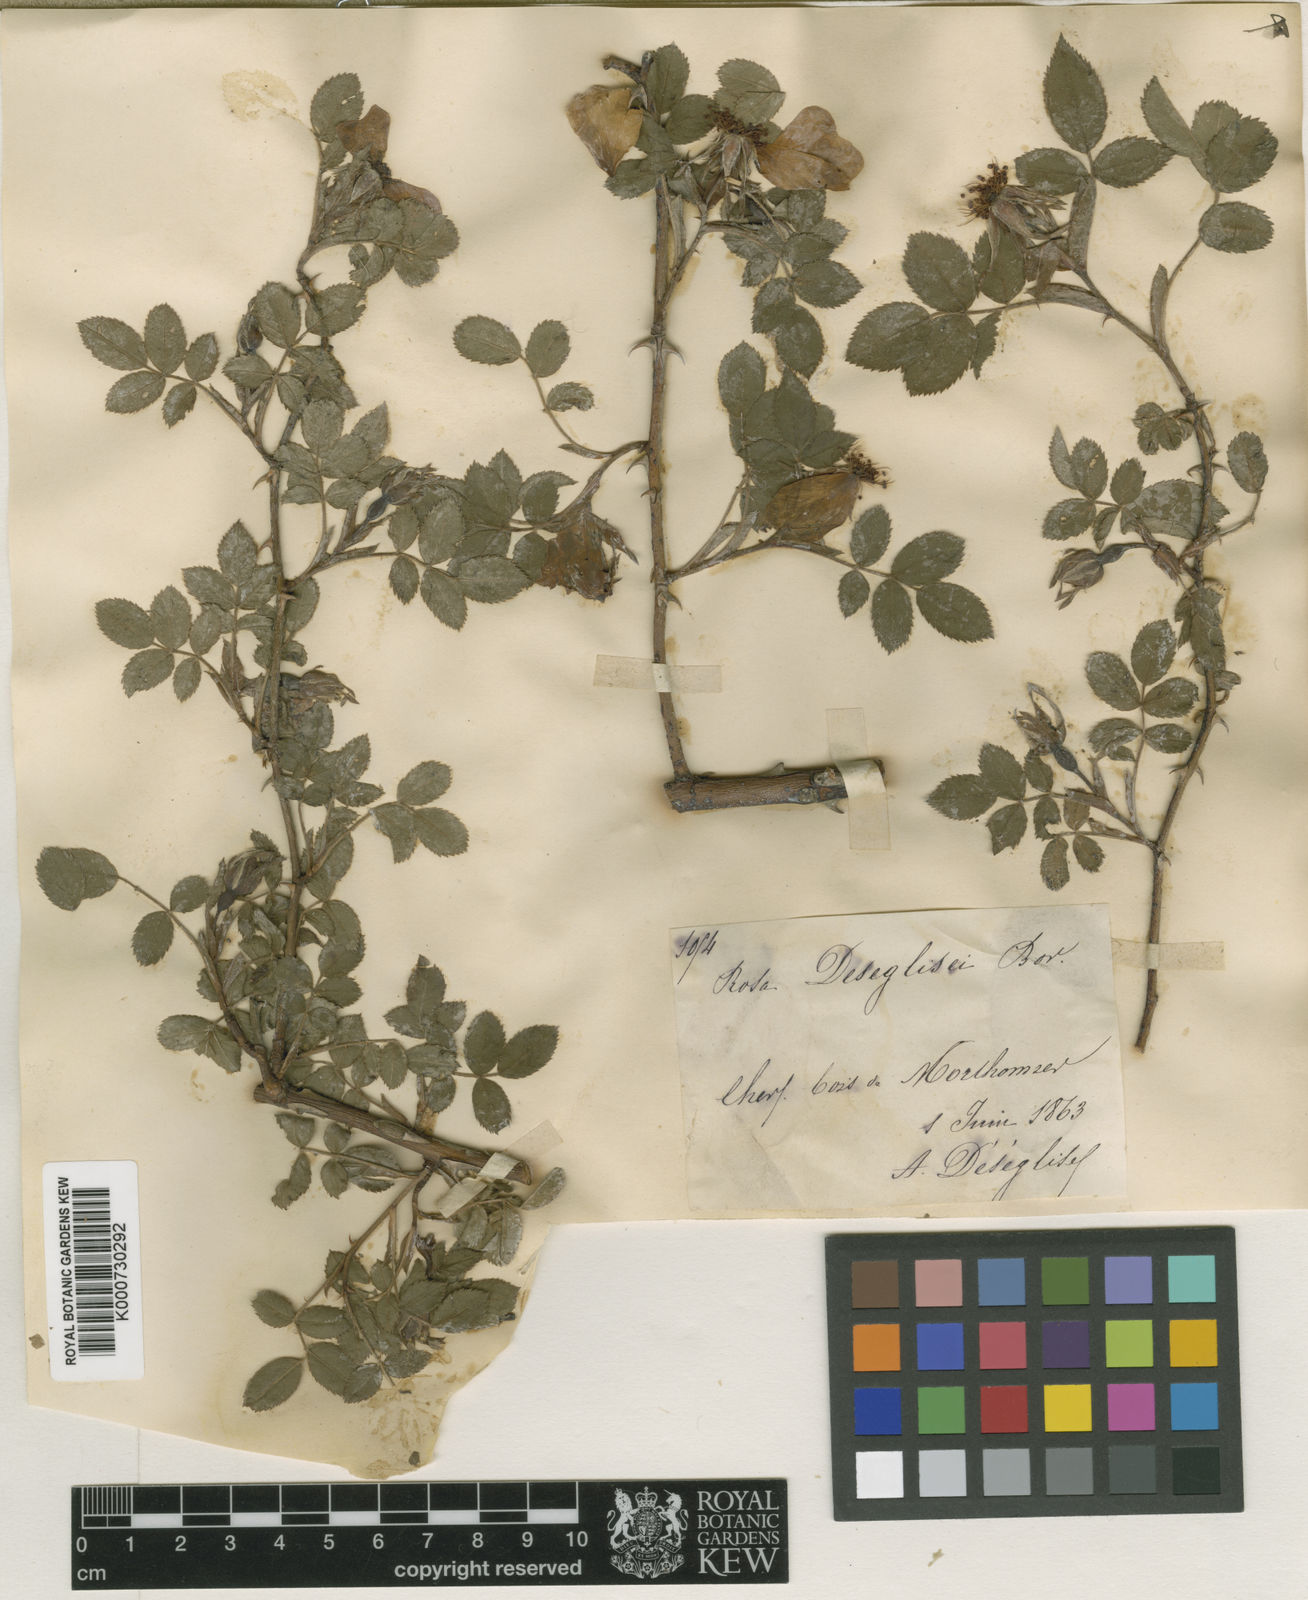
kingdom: Plantae
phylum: Tracheophyta
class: Magnoliopsida
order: Rosales
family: Rosaceae
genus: Rosa
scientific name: Rosa canina
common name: Dog rose
